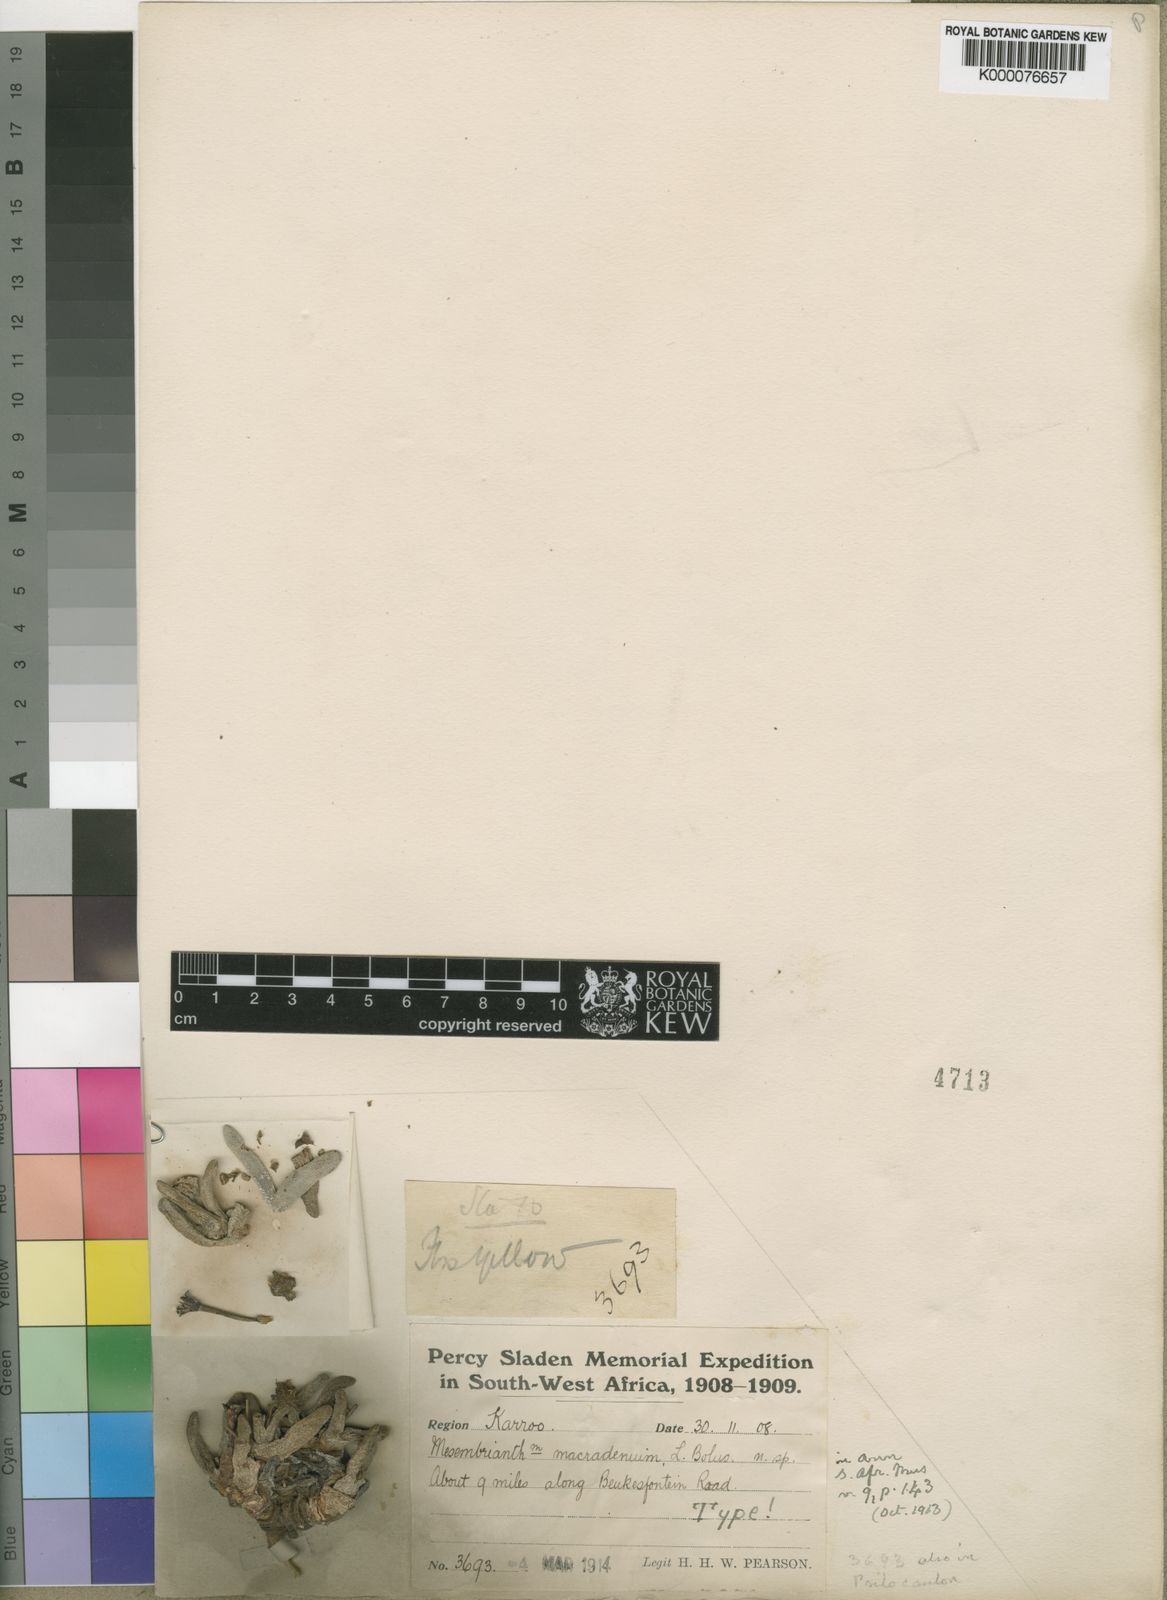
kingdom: Plantae
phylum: Tracheophyta
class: Magnoliopsida
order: Caryophyllales
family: Aizoaceae
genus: Peersia
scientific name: Peersia macradenia
